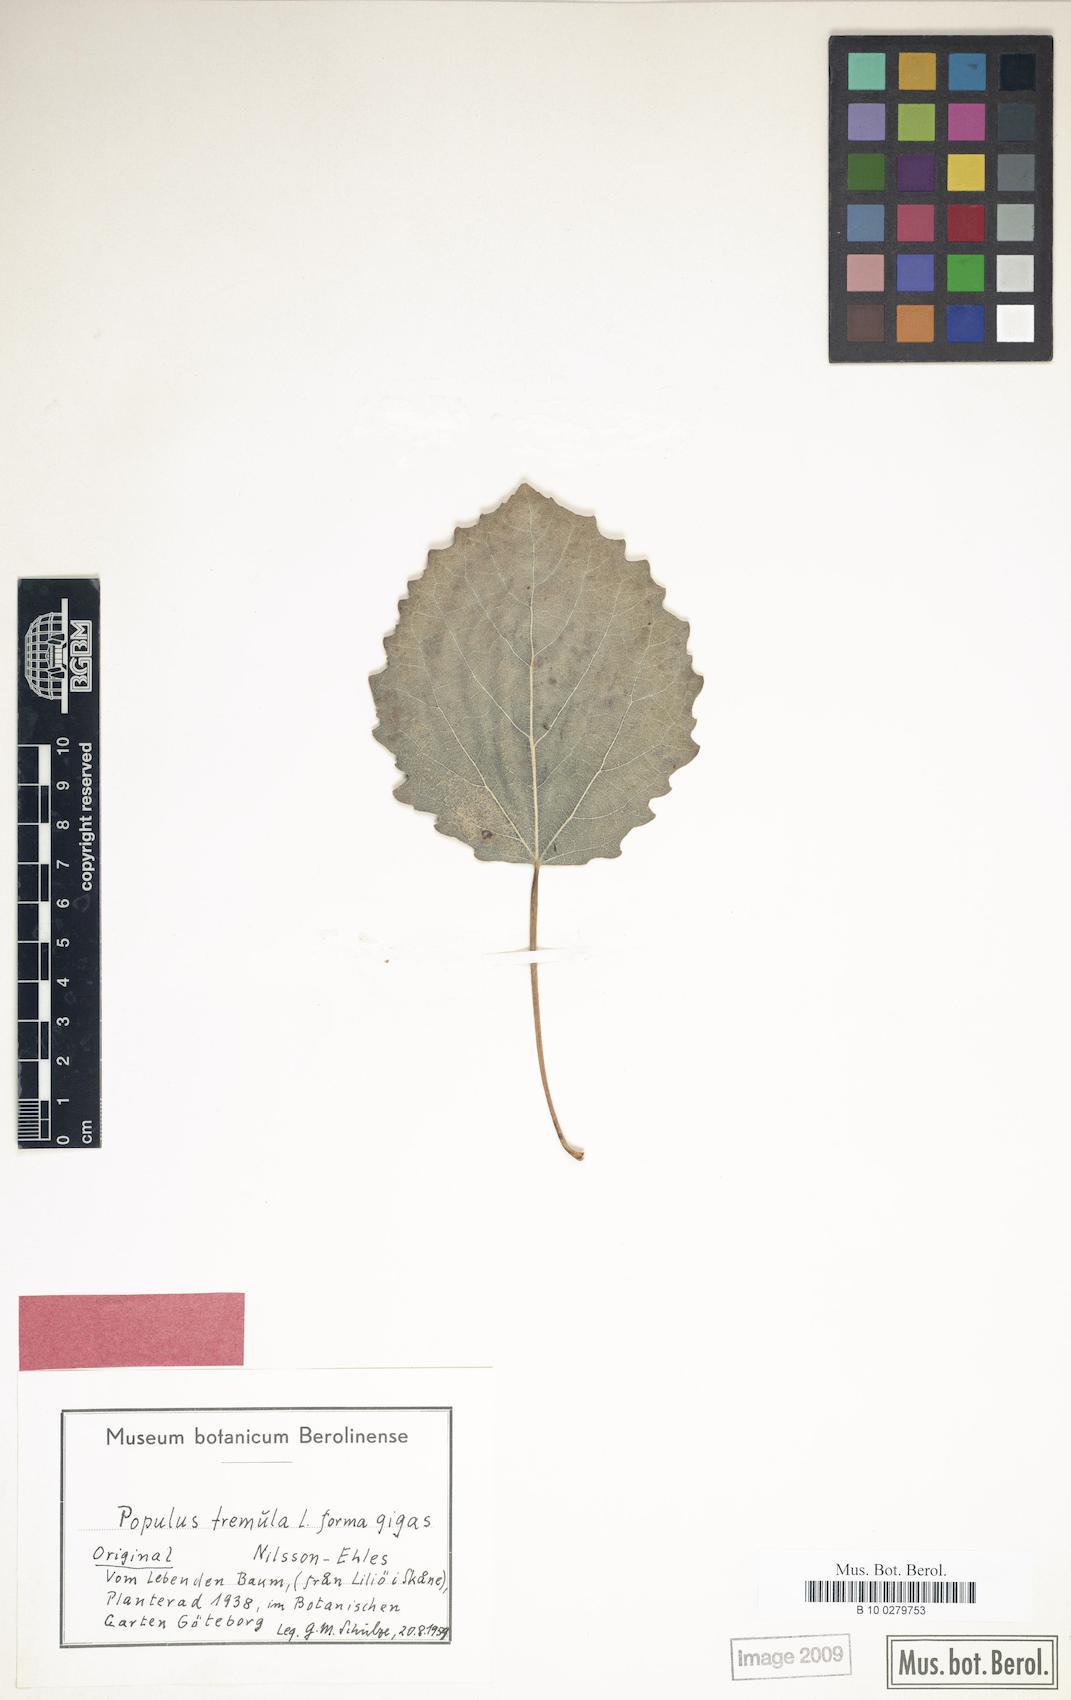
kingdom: Plantae
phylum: Tracheophyta
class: Magnoliopsida
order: Malpighiales
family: Salicaceae
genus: Populus
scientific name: Populus tremula
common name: European aspen
